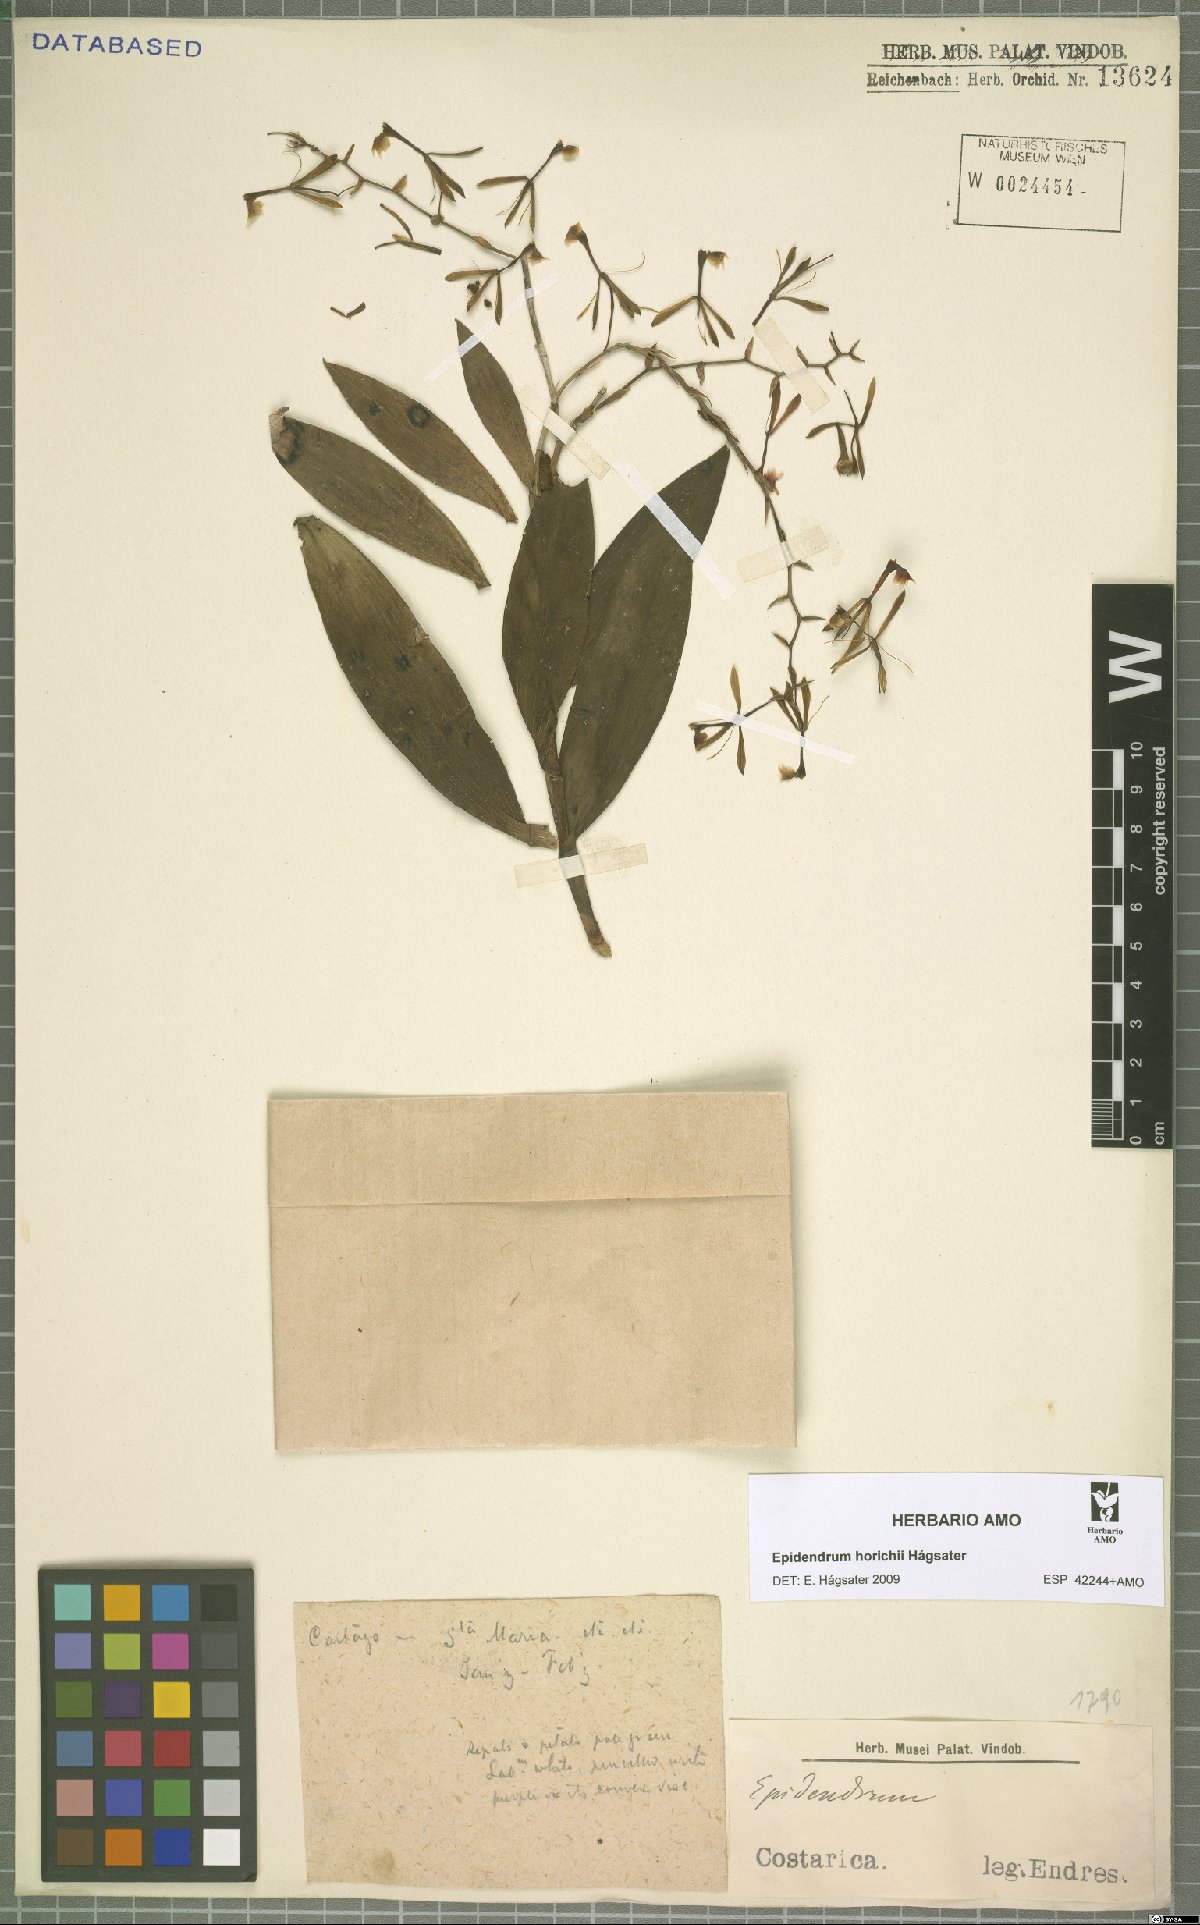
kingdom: Plantae
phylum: Tracheophyta
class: Liliopsida
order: Asparagales
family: Orchidaceae
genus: Epidendrum
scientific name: Epidendrum horichii
